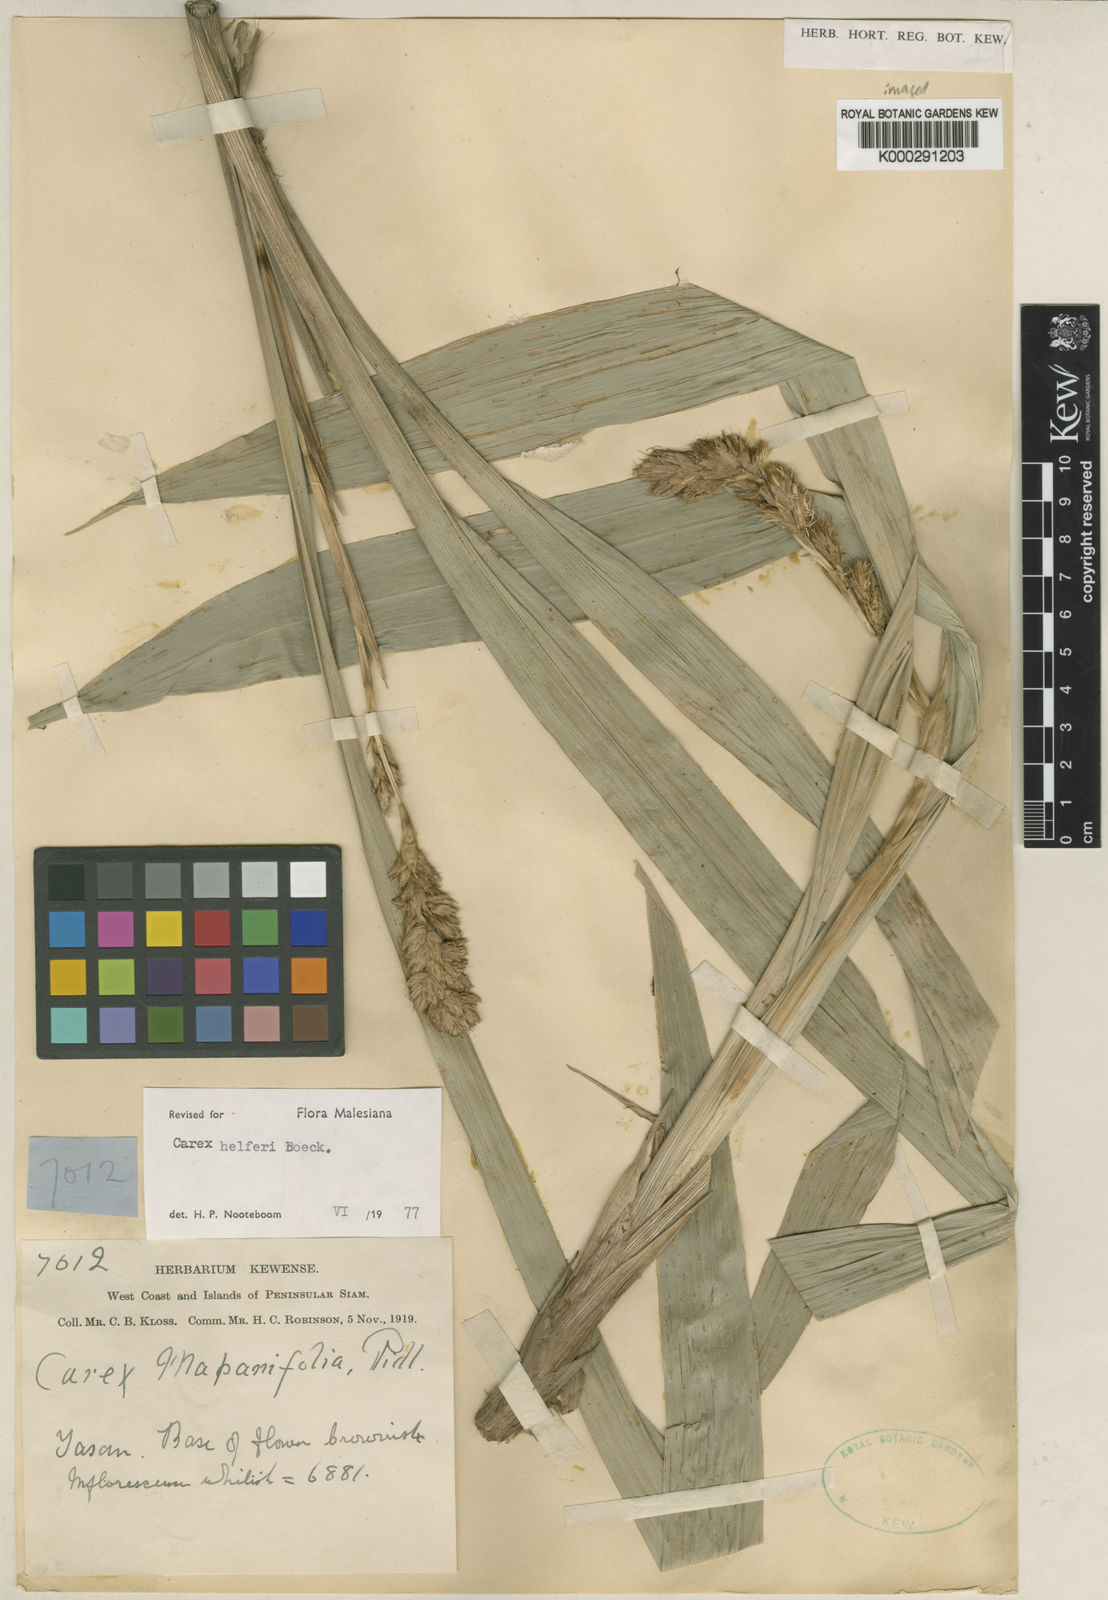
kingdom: Plantae
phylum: Tracheophyta
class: Liliopsida
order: Poales
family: Cyperaceae
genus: Carex
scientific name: Carex helferi
